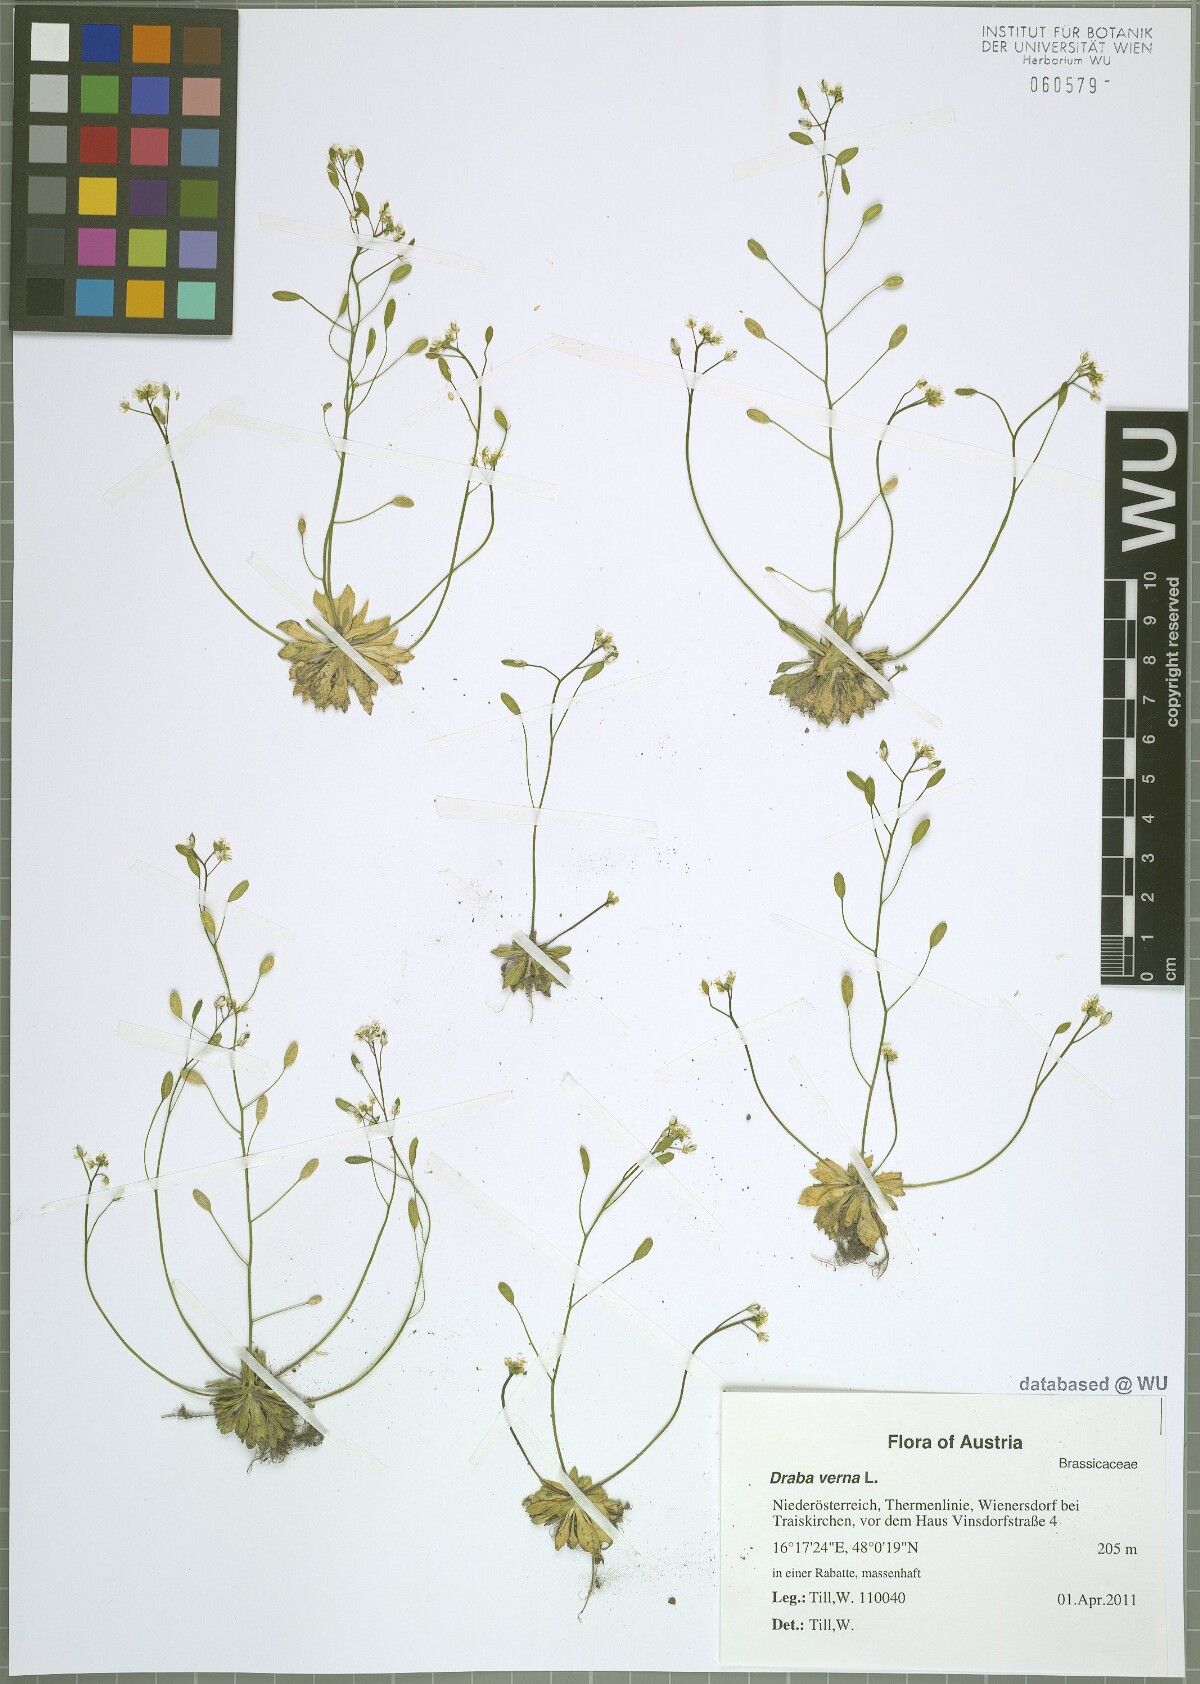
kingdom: Plantae
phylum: Tracheophyta
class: Magnoliopsida
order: Brassicales
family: Brassicaceae
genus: Draba
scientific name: Draba verna
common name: Spring draba
